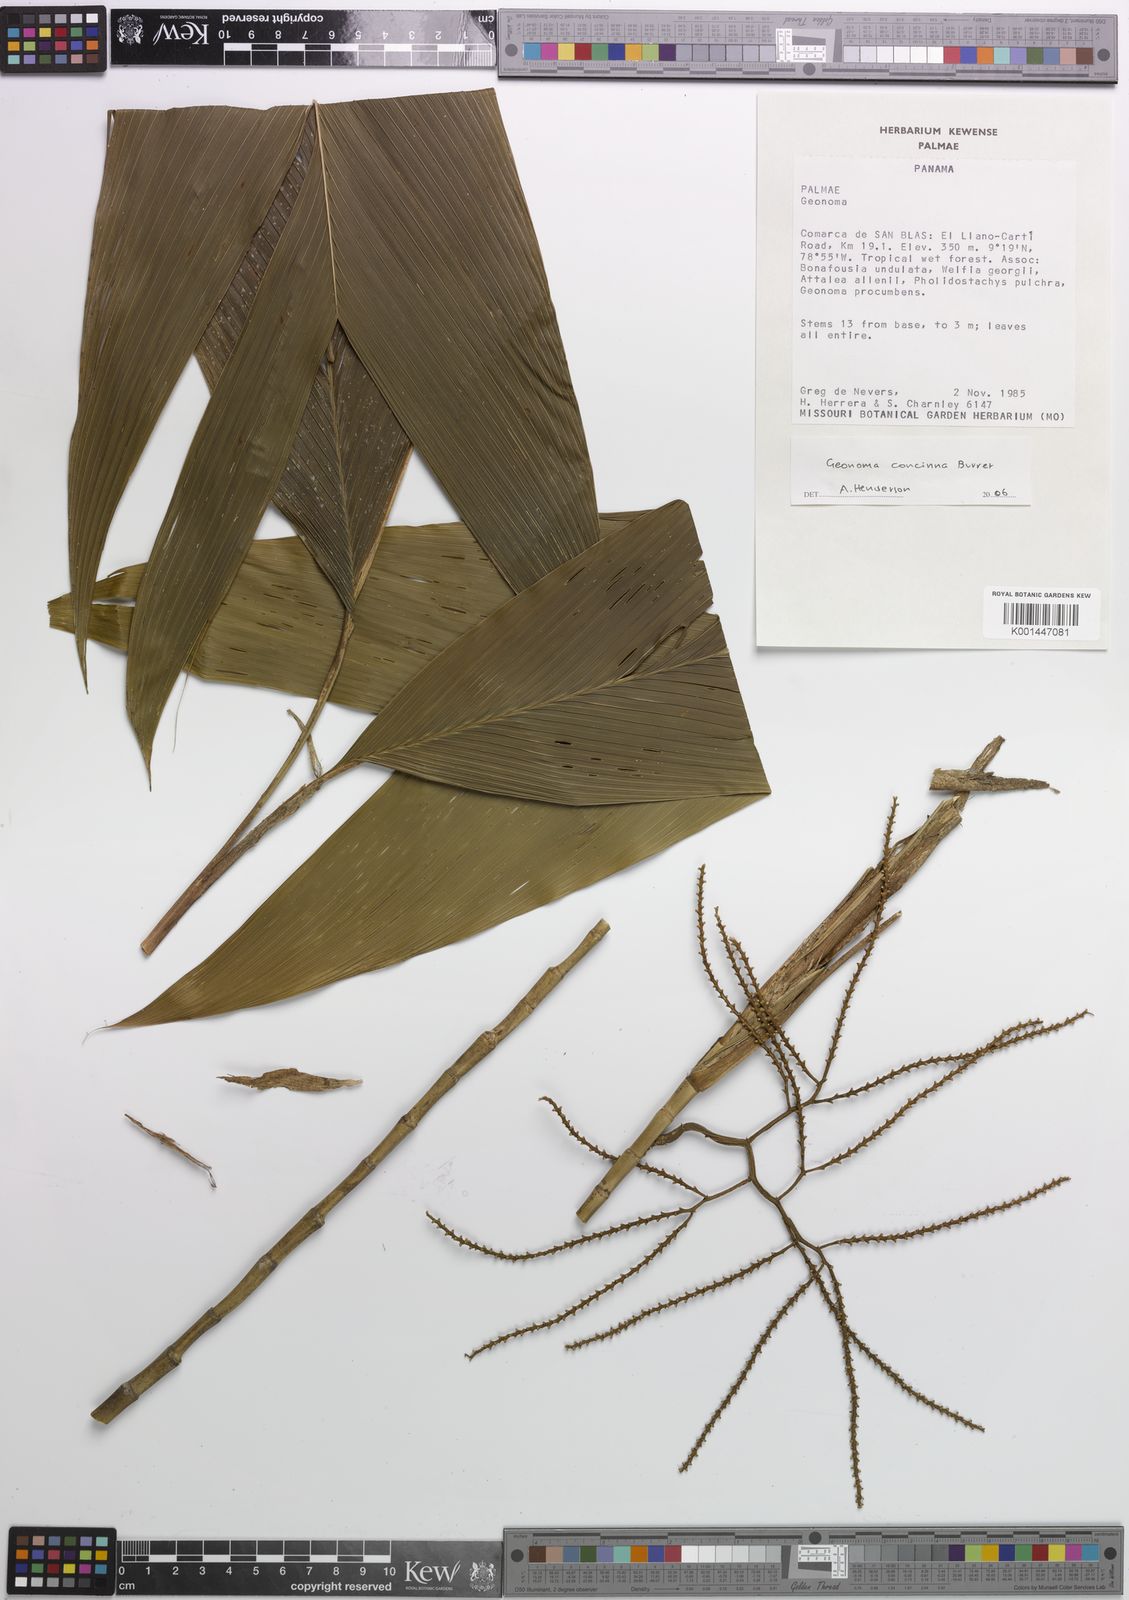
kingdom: Plantae
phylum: Tracheophyta
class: Liliopsida
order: Arecales
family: Arecaceae
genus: Geonoma
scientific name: Geonoma concinna
